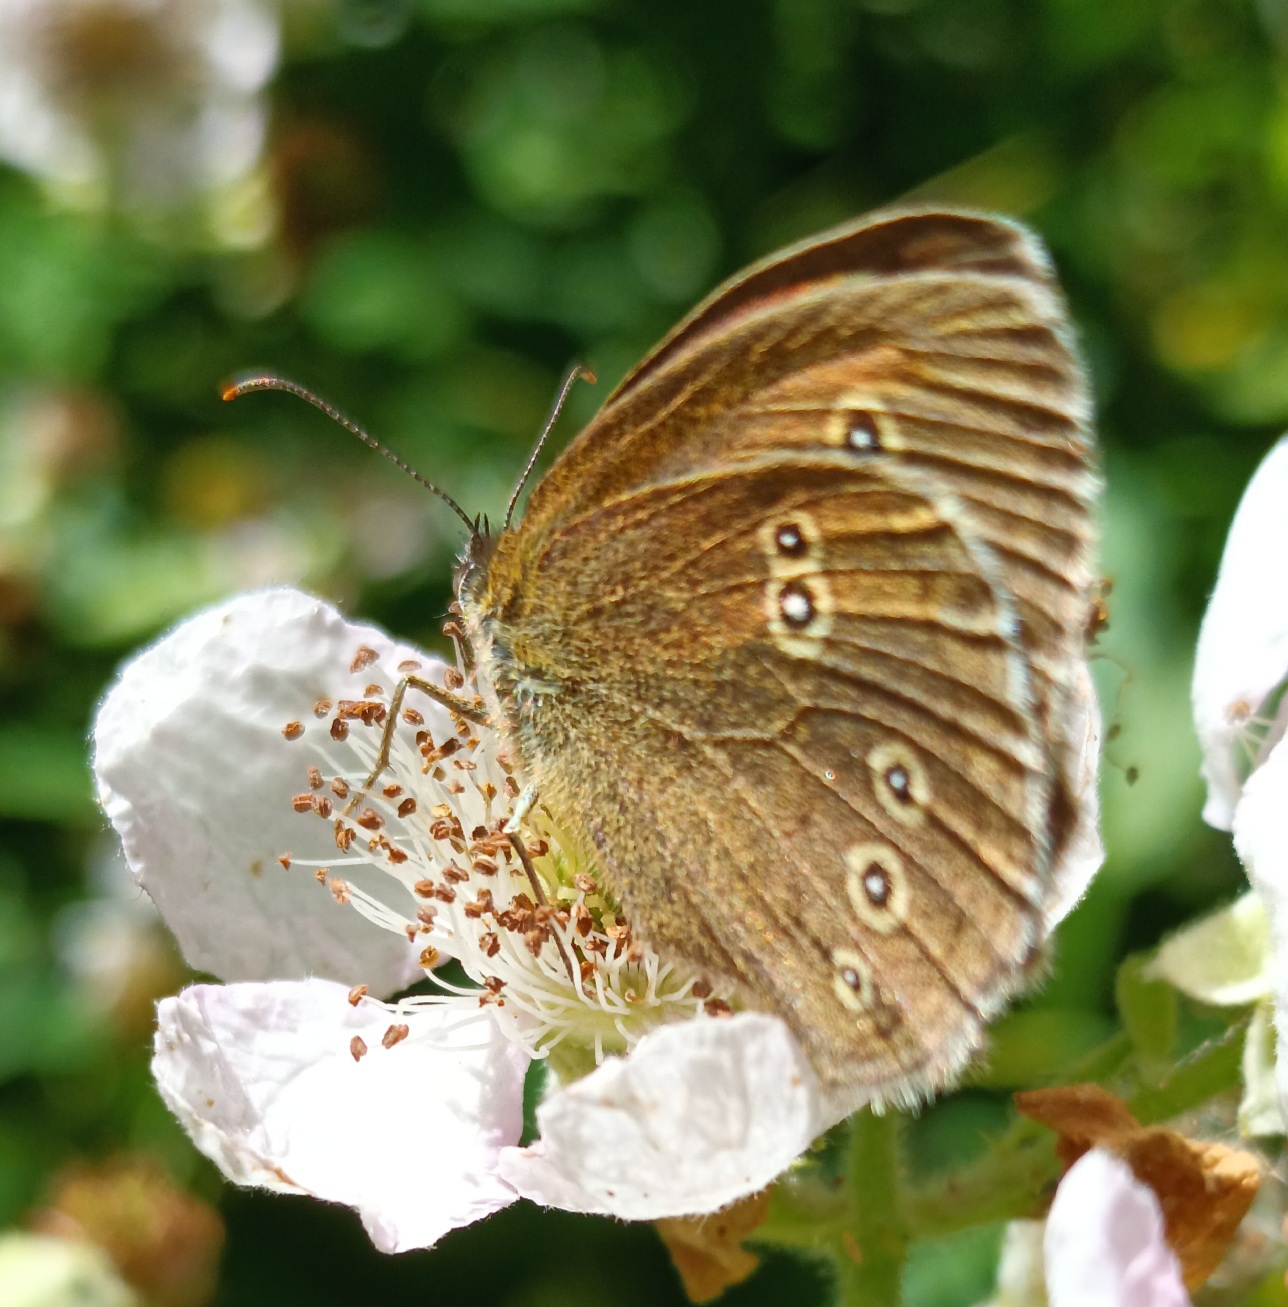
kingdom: Animalia
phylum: Arthropoda
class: Insecta
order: Lepidoptera
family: Nymphalidae
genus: Aphantopus
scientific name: Aphantopus hyperantus
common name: Engrandøje
